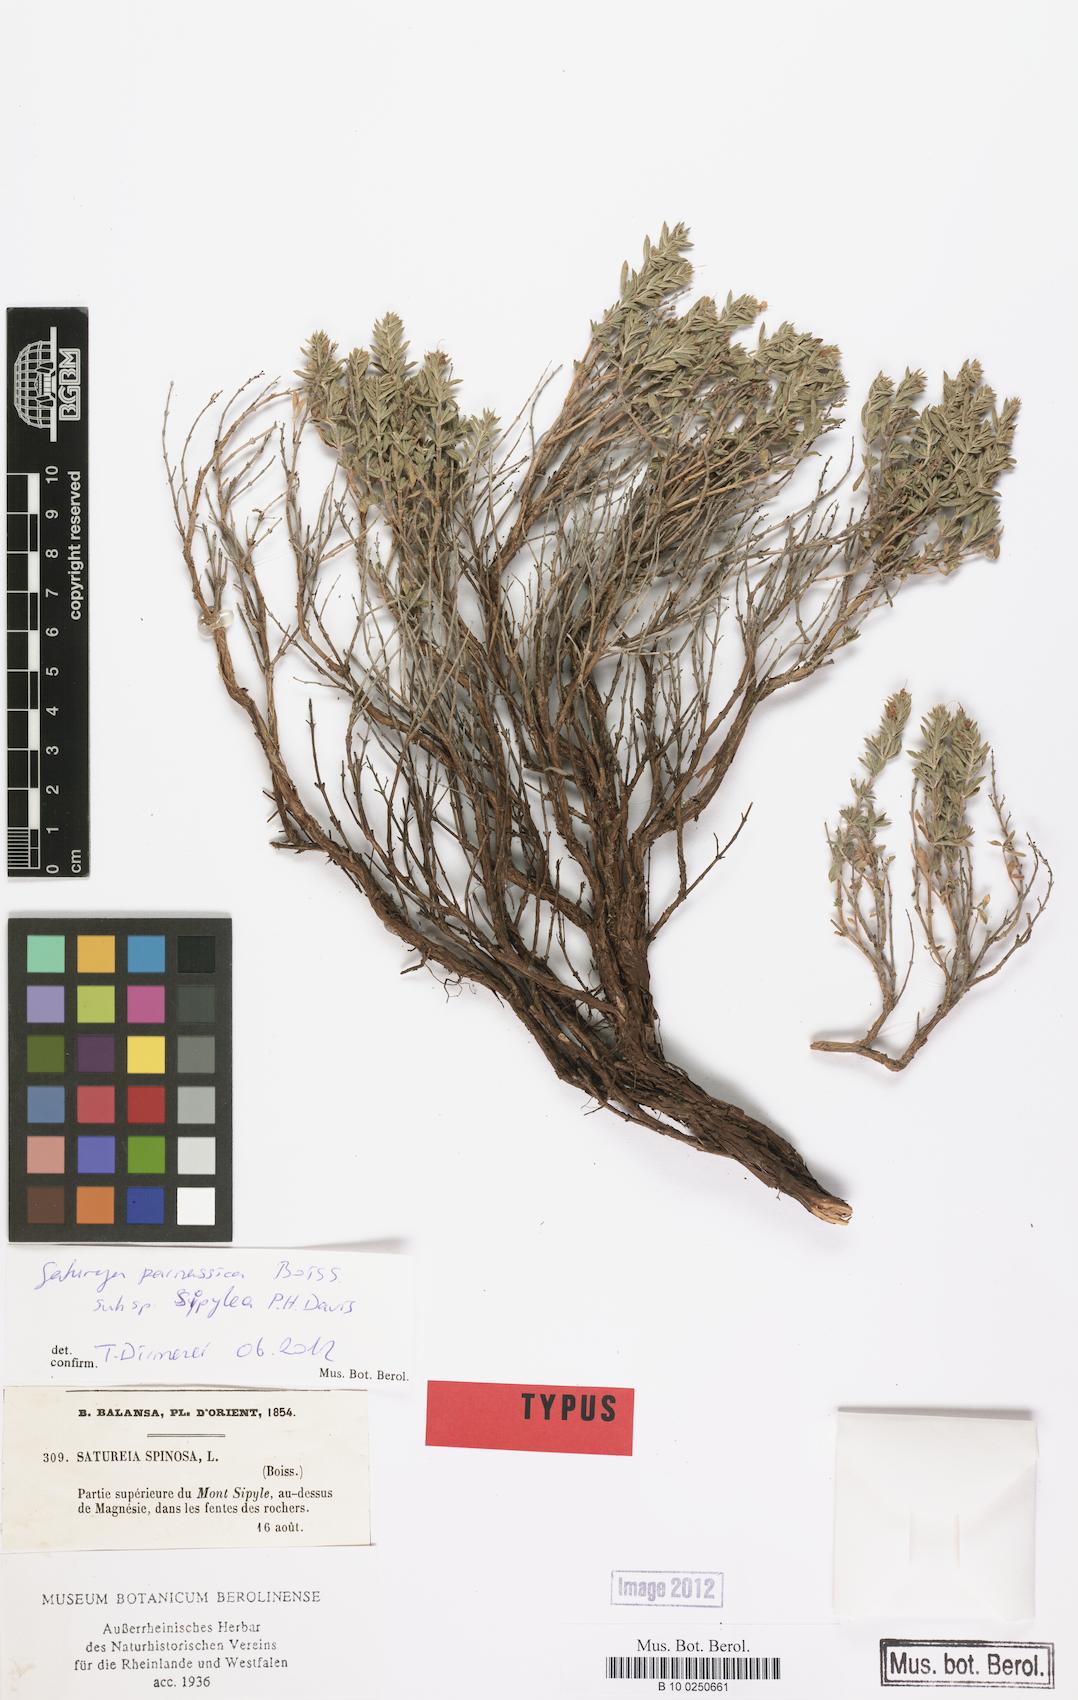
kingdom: Plantae
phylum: Tracheophyta
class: Magnoliopsida
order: Lamiales
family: Lamiaceae
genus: Satureja
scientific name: Satureja parnassica
